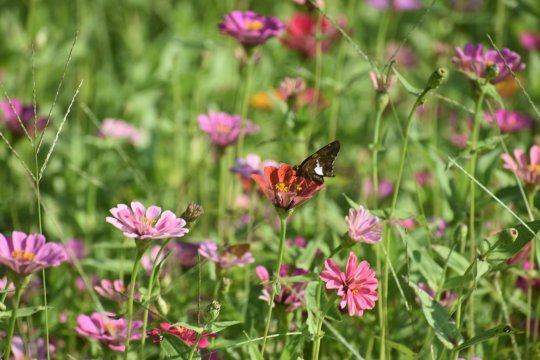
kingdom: Animalia
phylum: Arthropoda
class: Insecta
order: Lepidoptera
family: Hesperiidae
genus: Epargyreus
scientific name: Epargyreus clarus
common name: Silver-spotted Skipper
